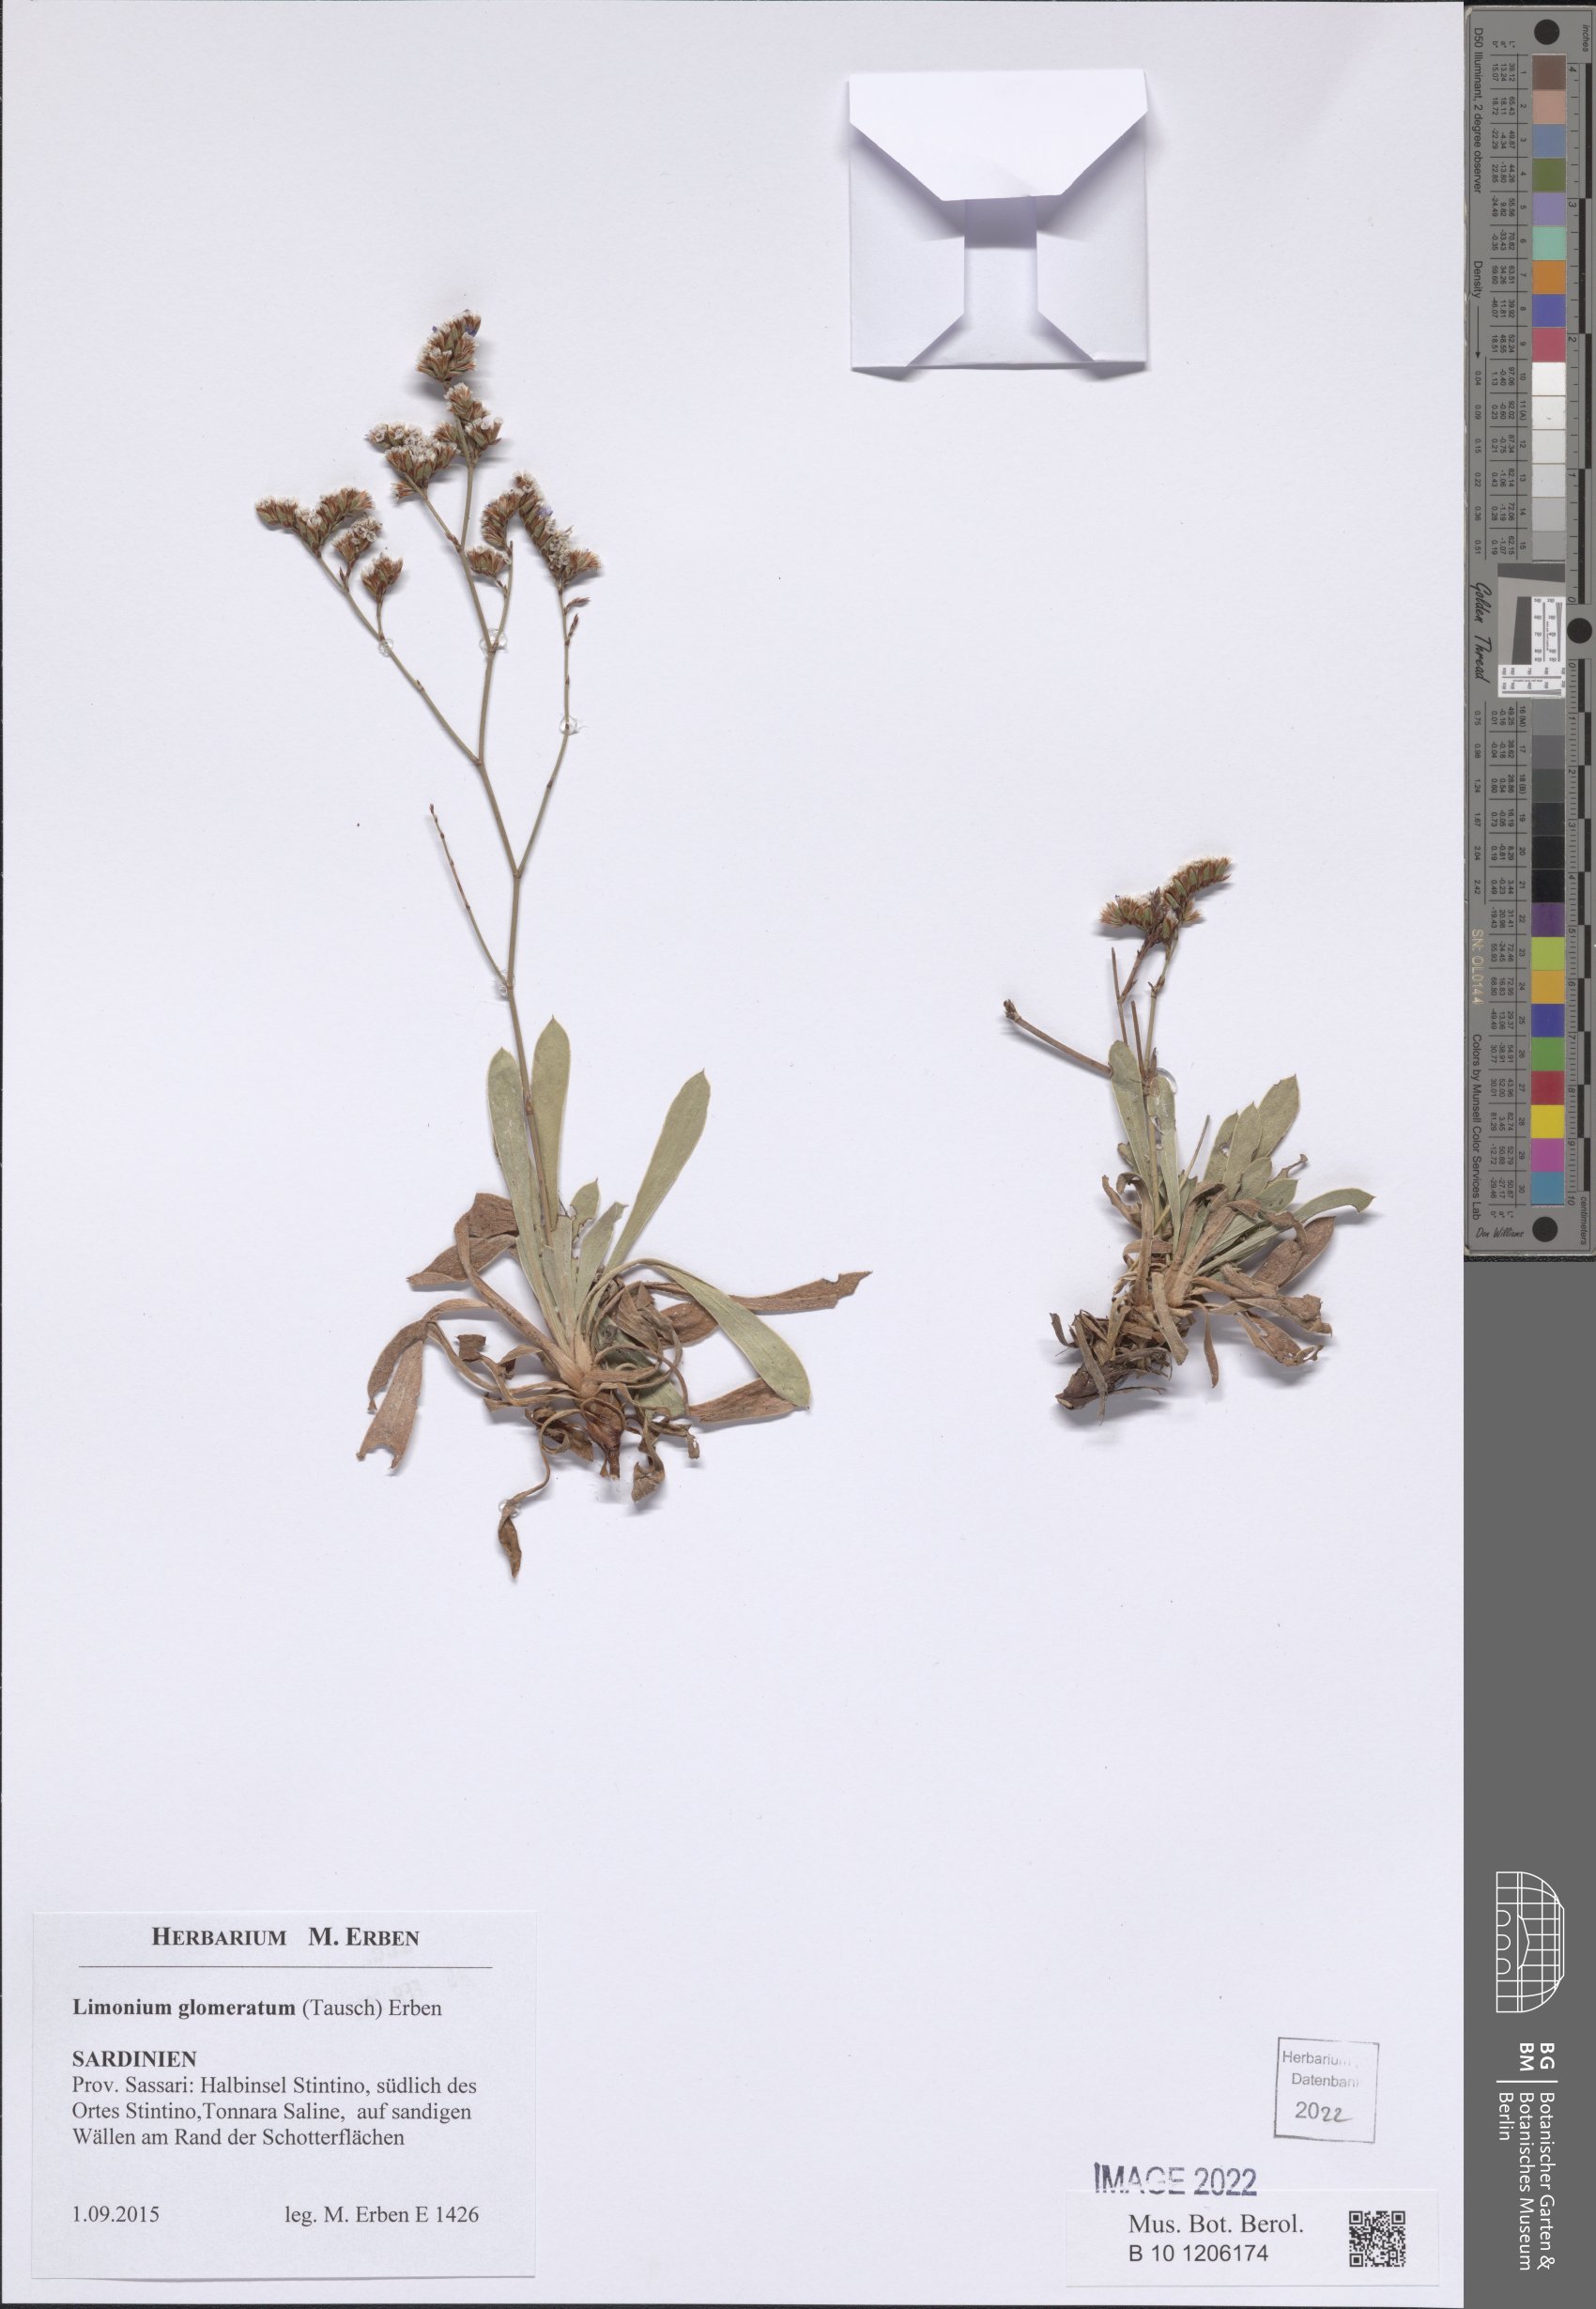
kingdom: Plantae
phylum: Tracheophyta
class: Magnoliopsida
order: Caryophyllales
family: Plumbaginaceae
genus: Limonium
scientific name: Limonium glomeratum
